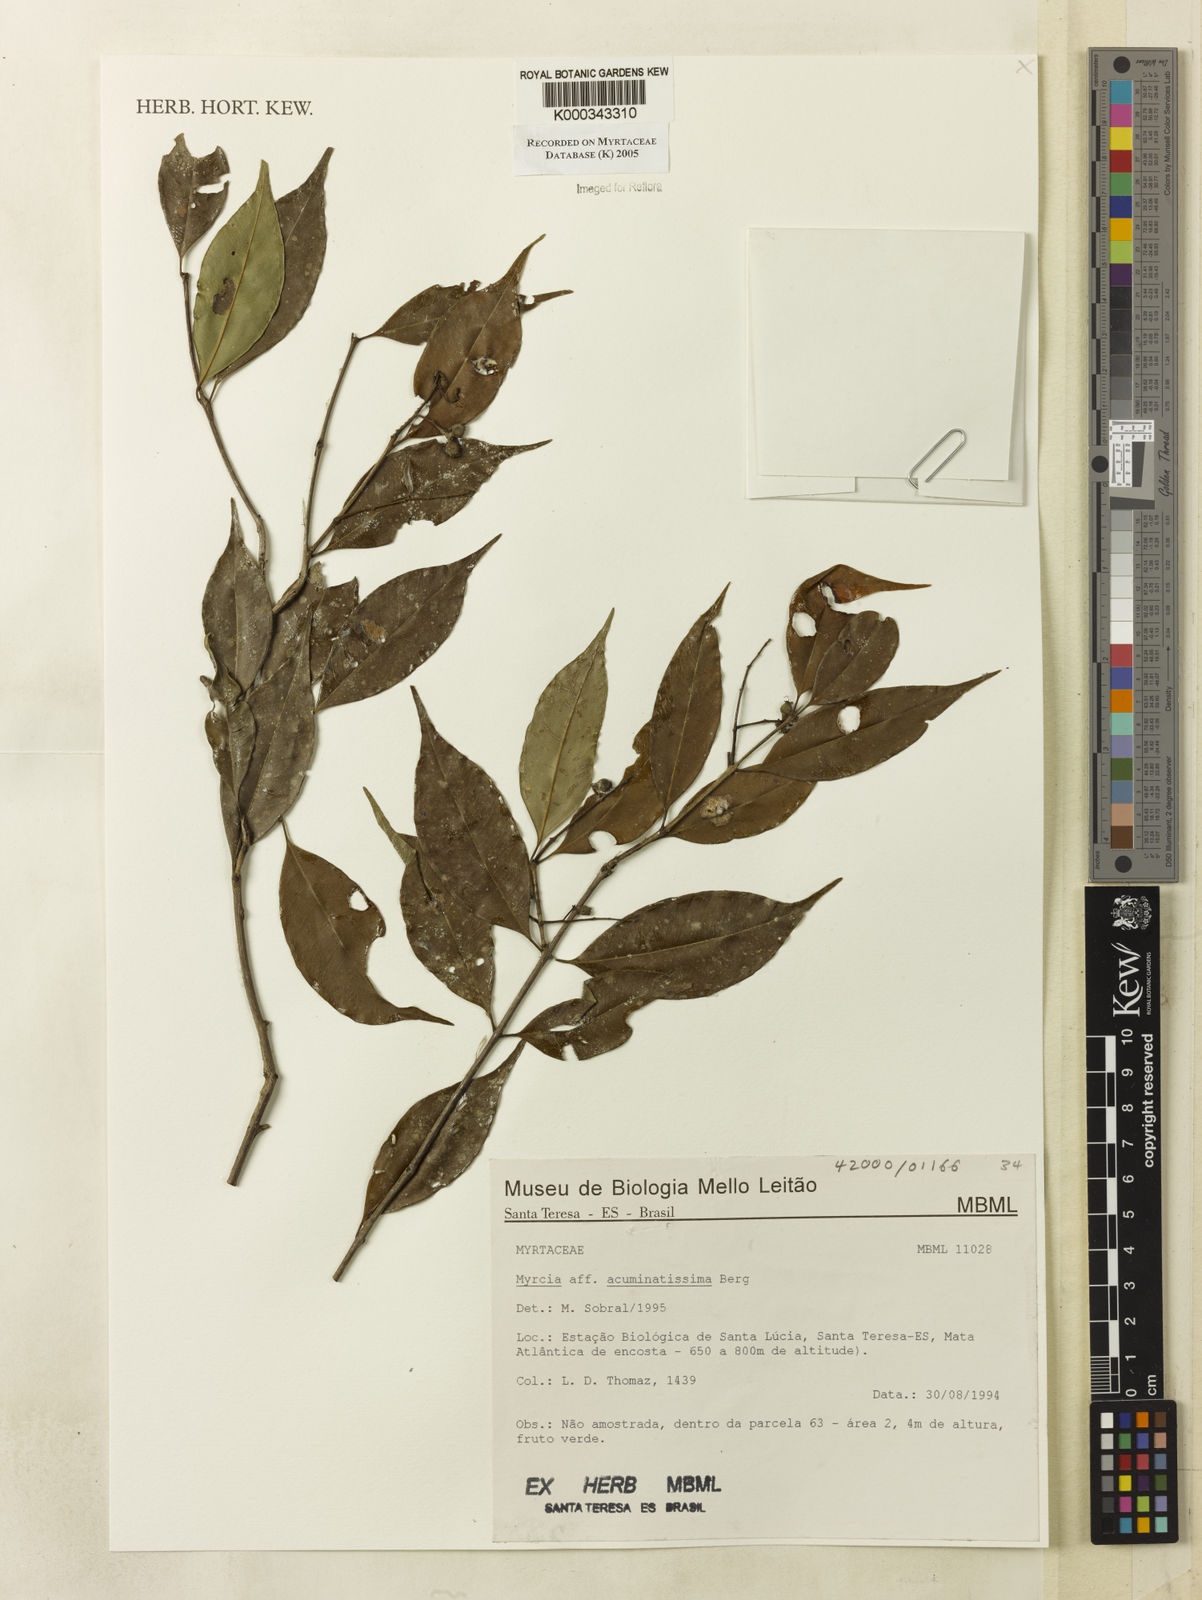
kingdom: Plantae
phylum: Tracheophyta
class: Magnoliopsida
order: Myrtales
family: Myrtaceae
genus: Myrcia
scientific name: Myrcia racemosa
